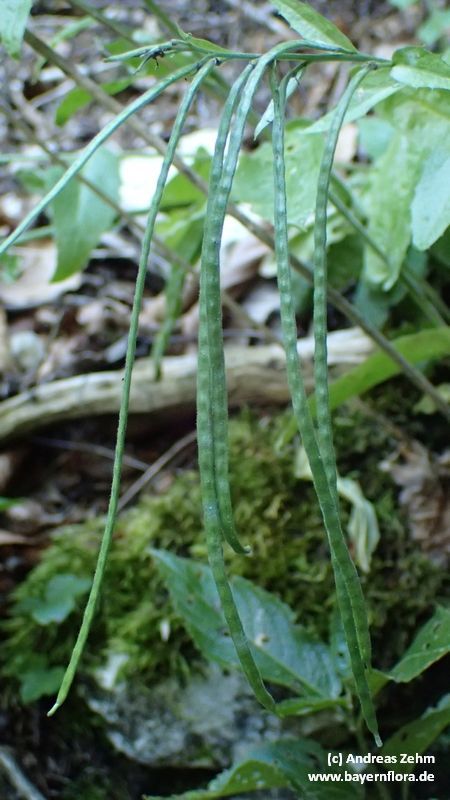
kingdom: Plantae
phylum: Tracheophyta
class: Magnoliopsida
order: Brassicales
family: Brassicaceae
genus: Pseudoturritis
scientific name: Pseudoturritis turrita
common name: Tower cress
